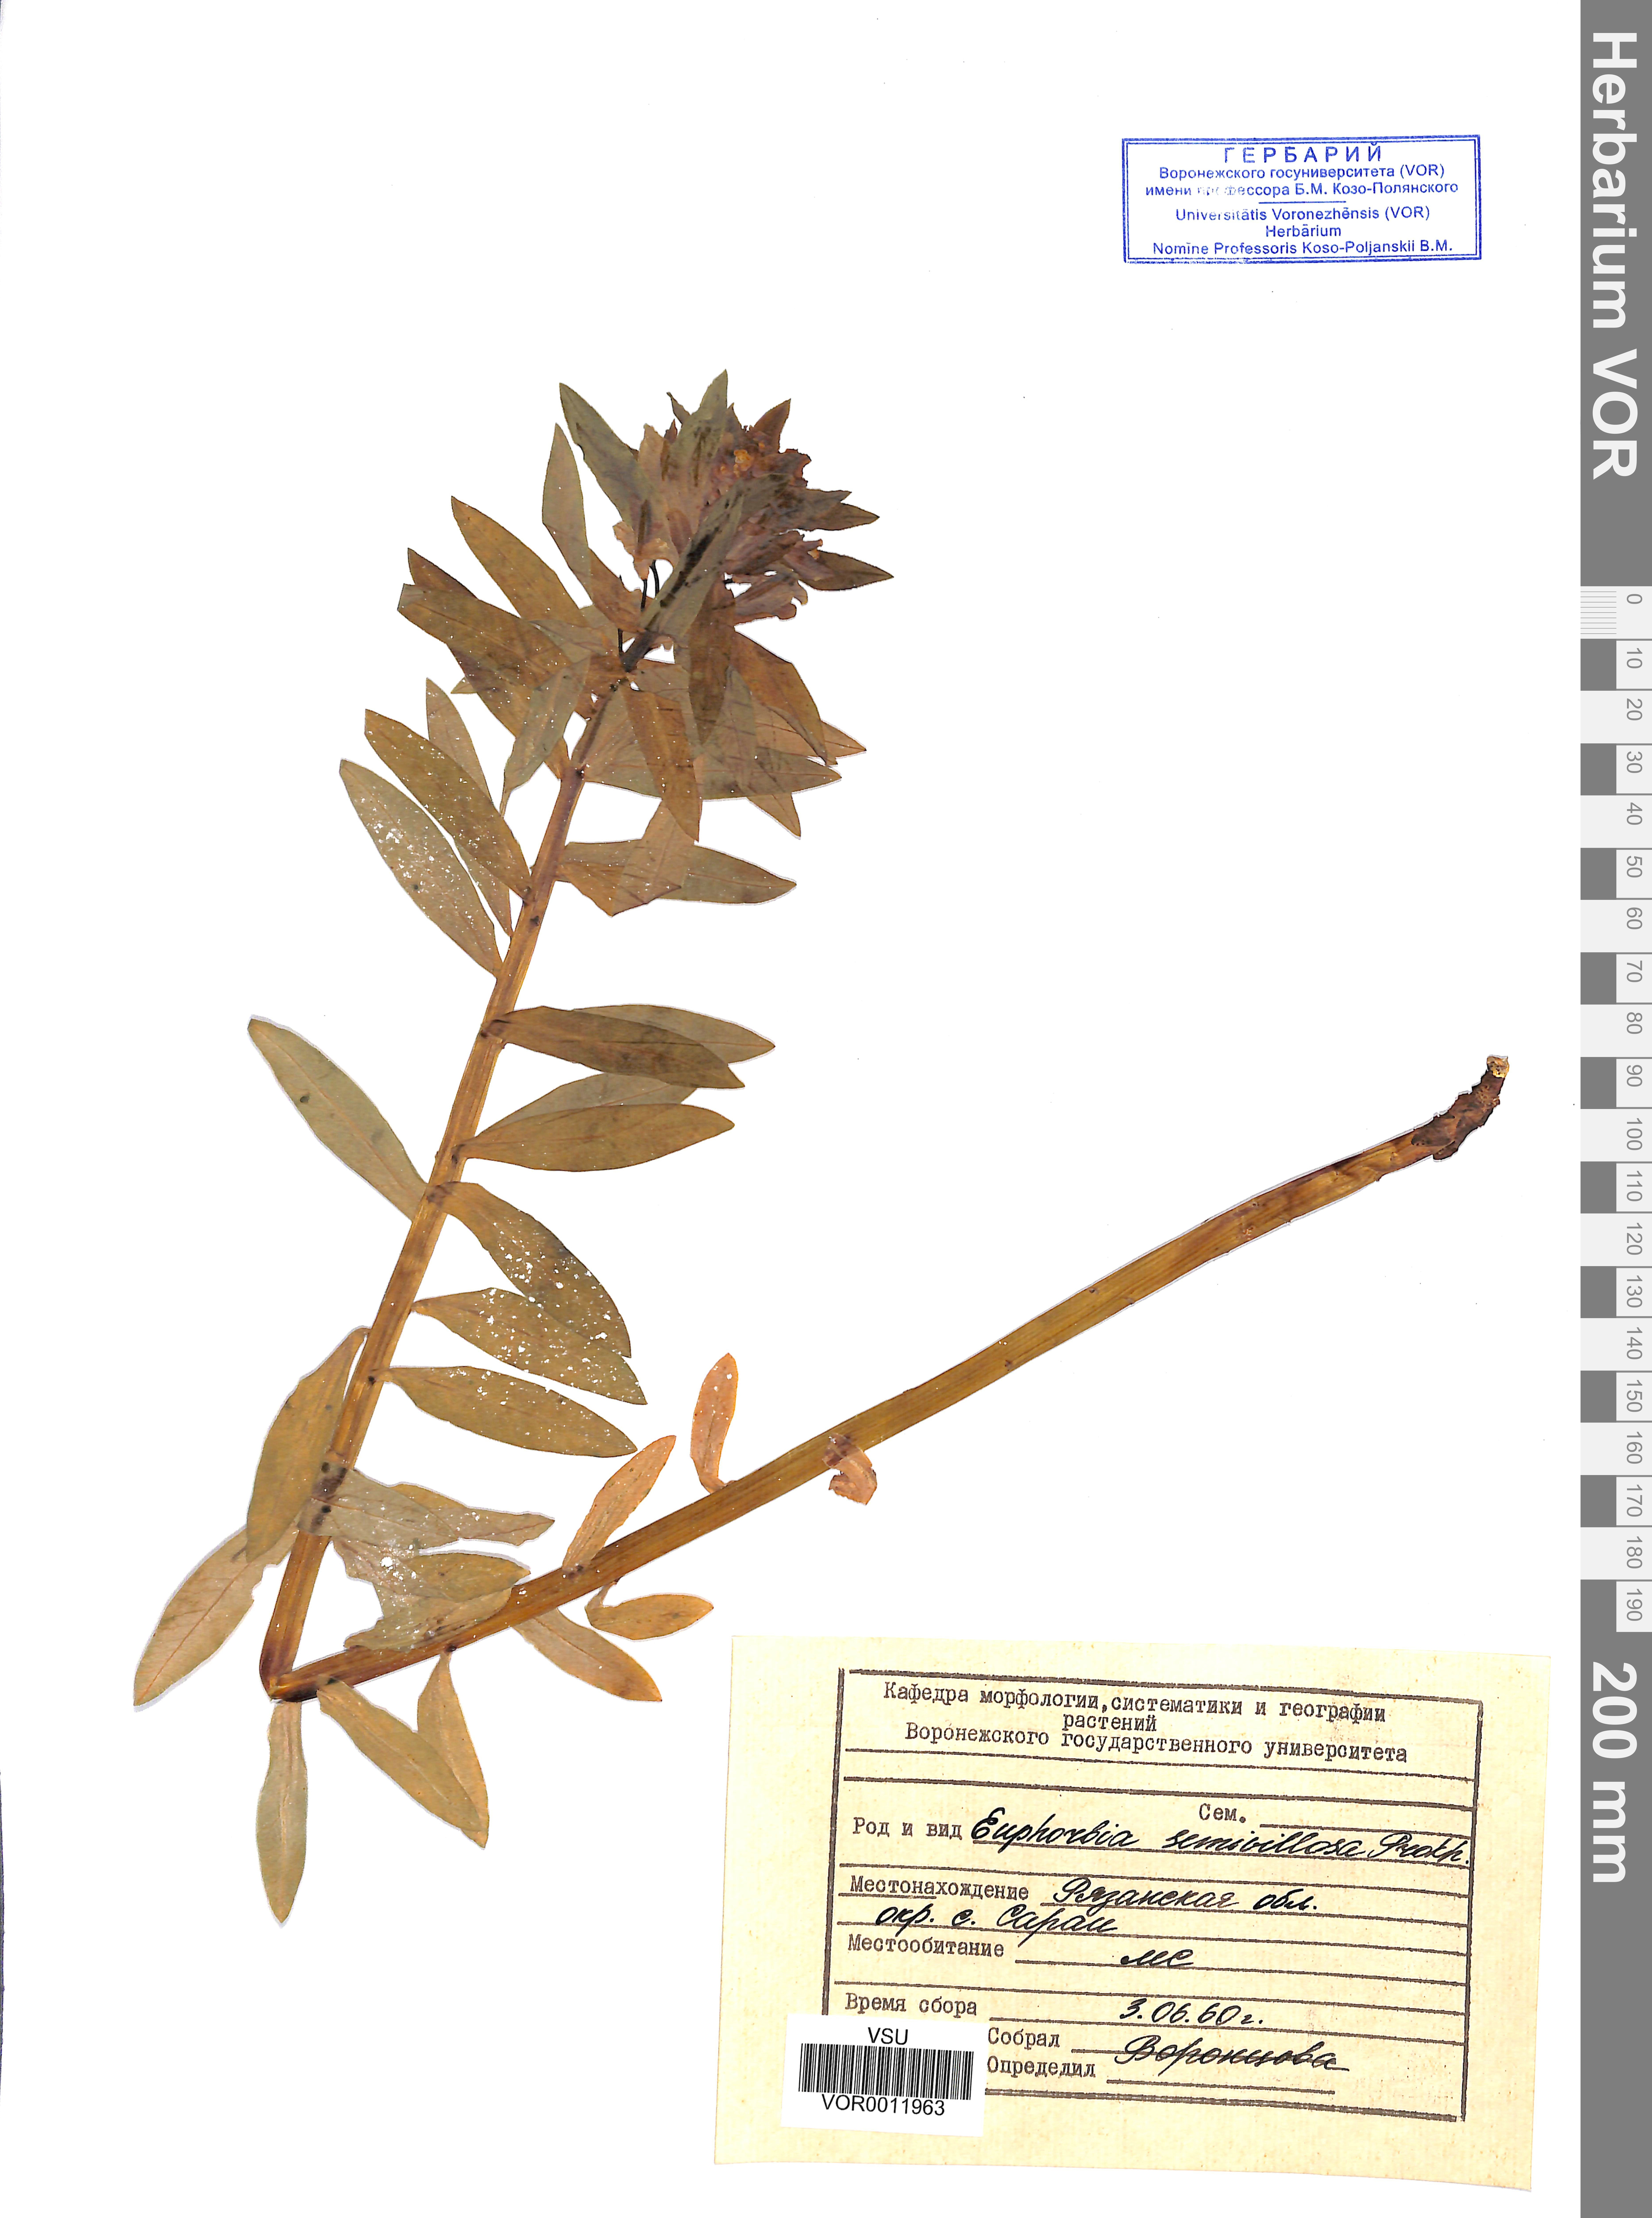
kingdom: Plantae
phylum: Tracheophyta
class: Magnoliopsida
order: Malpighiales
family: Euphorbiaceae
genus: Euphorbia
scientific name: Euphorbia semivillosa
